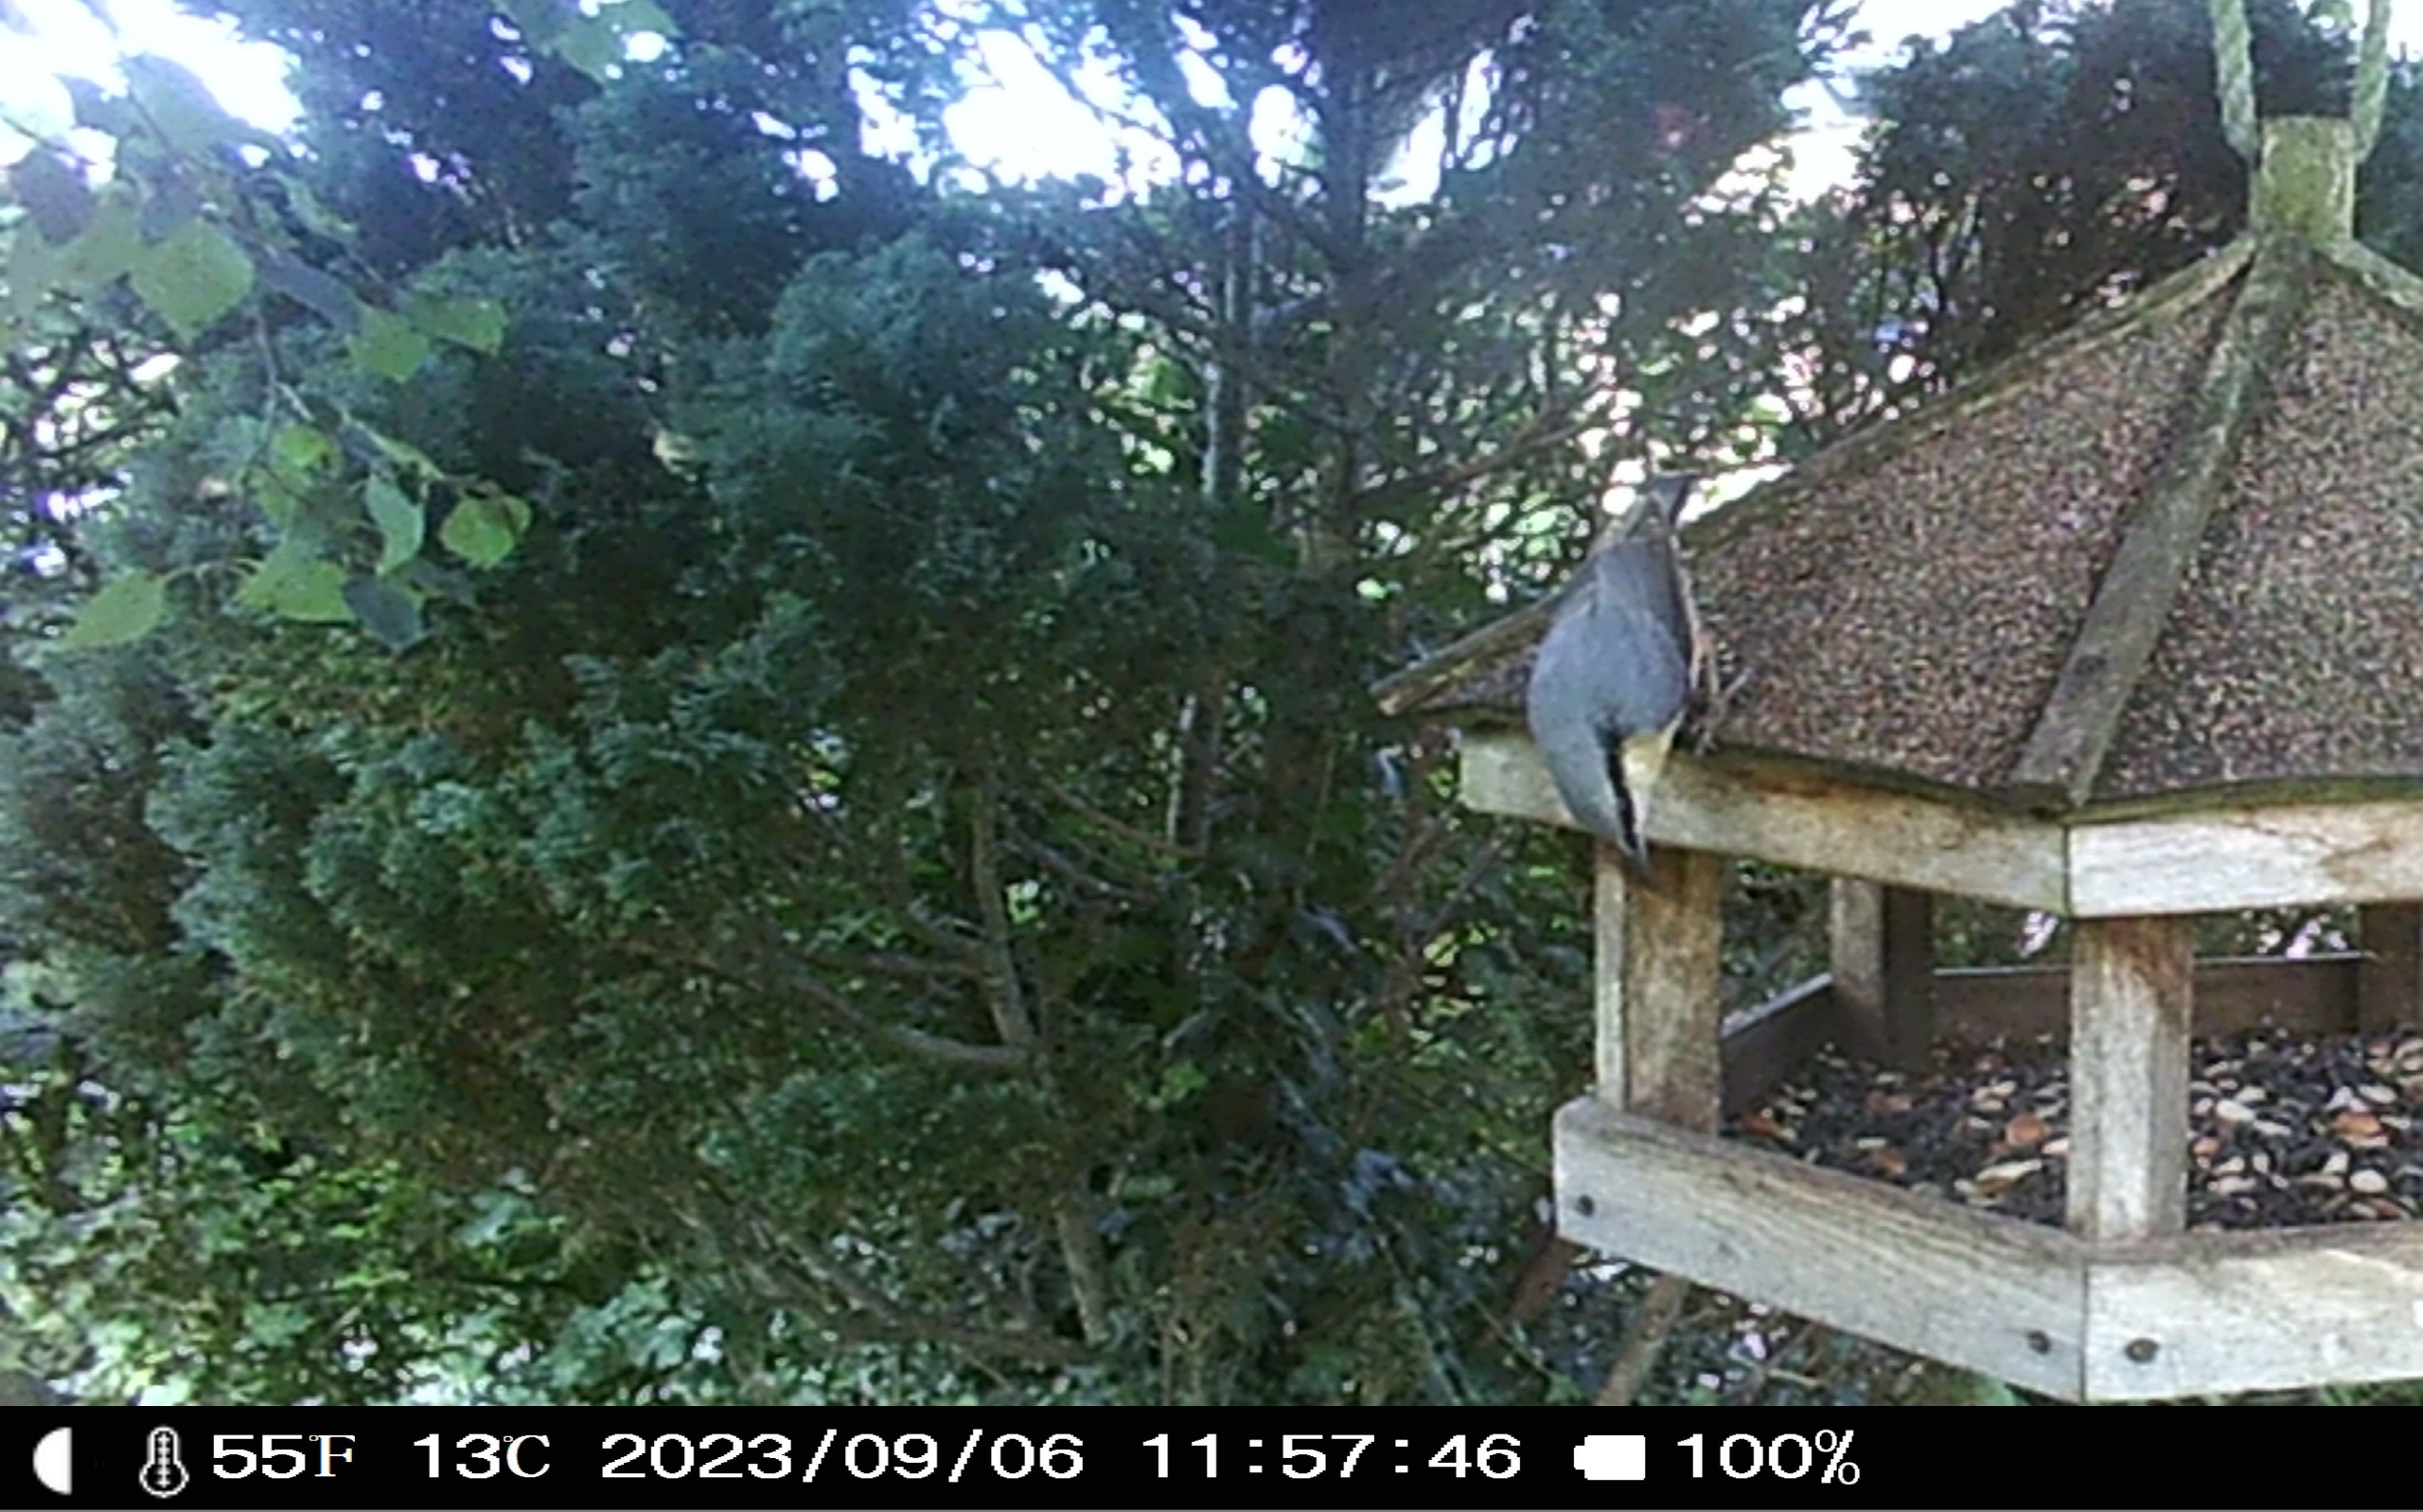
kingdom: Animalia
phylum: Chordata
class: Aves
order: Passeriformes
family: Sittidae
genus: Sitta
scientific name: Sitta europaea
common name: Spætmejse
